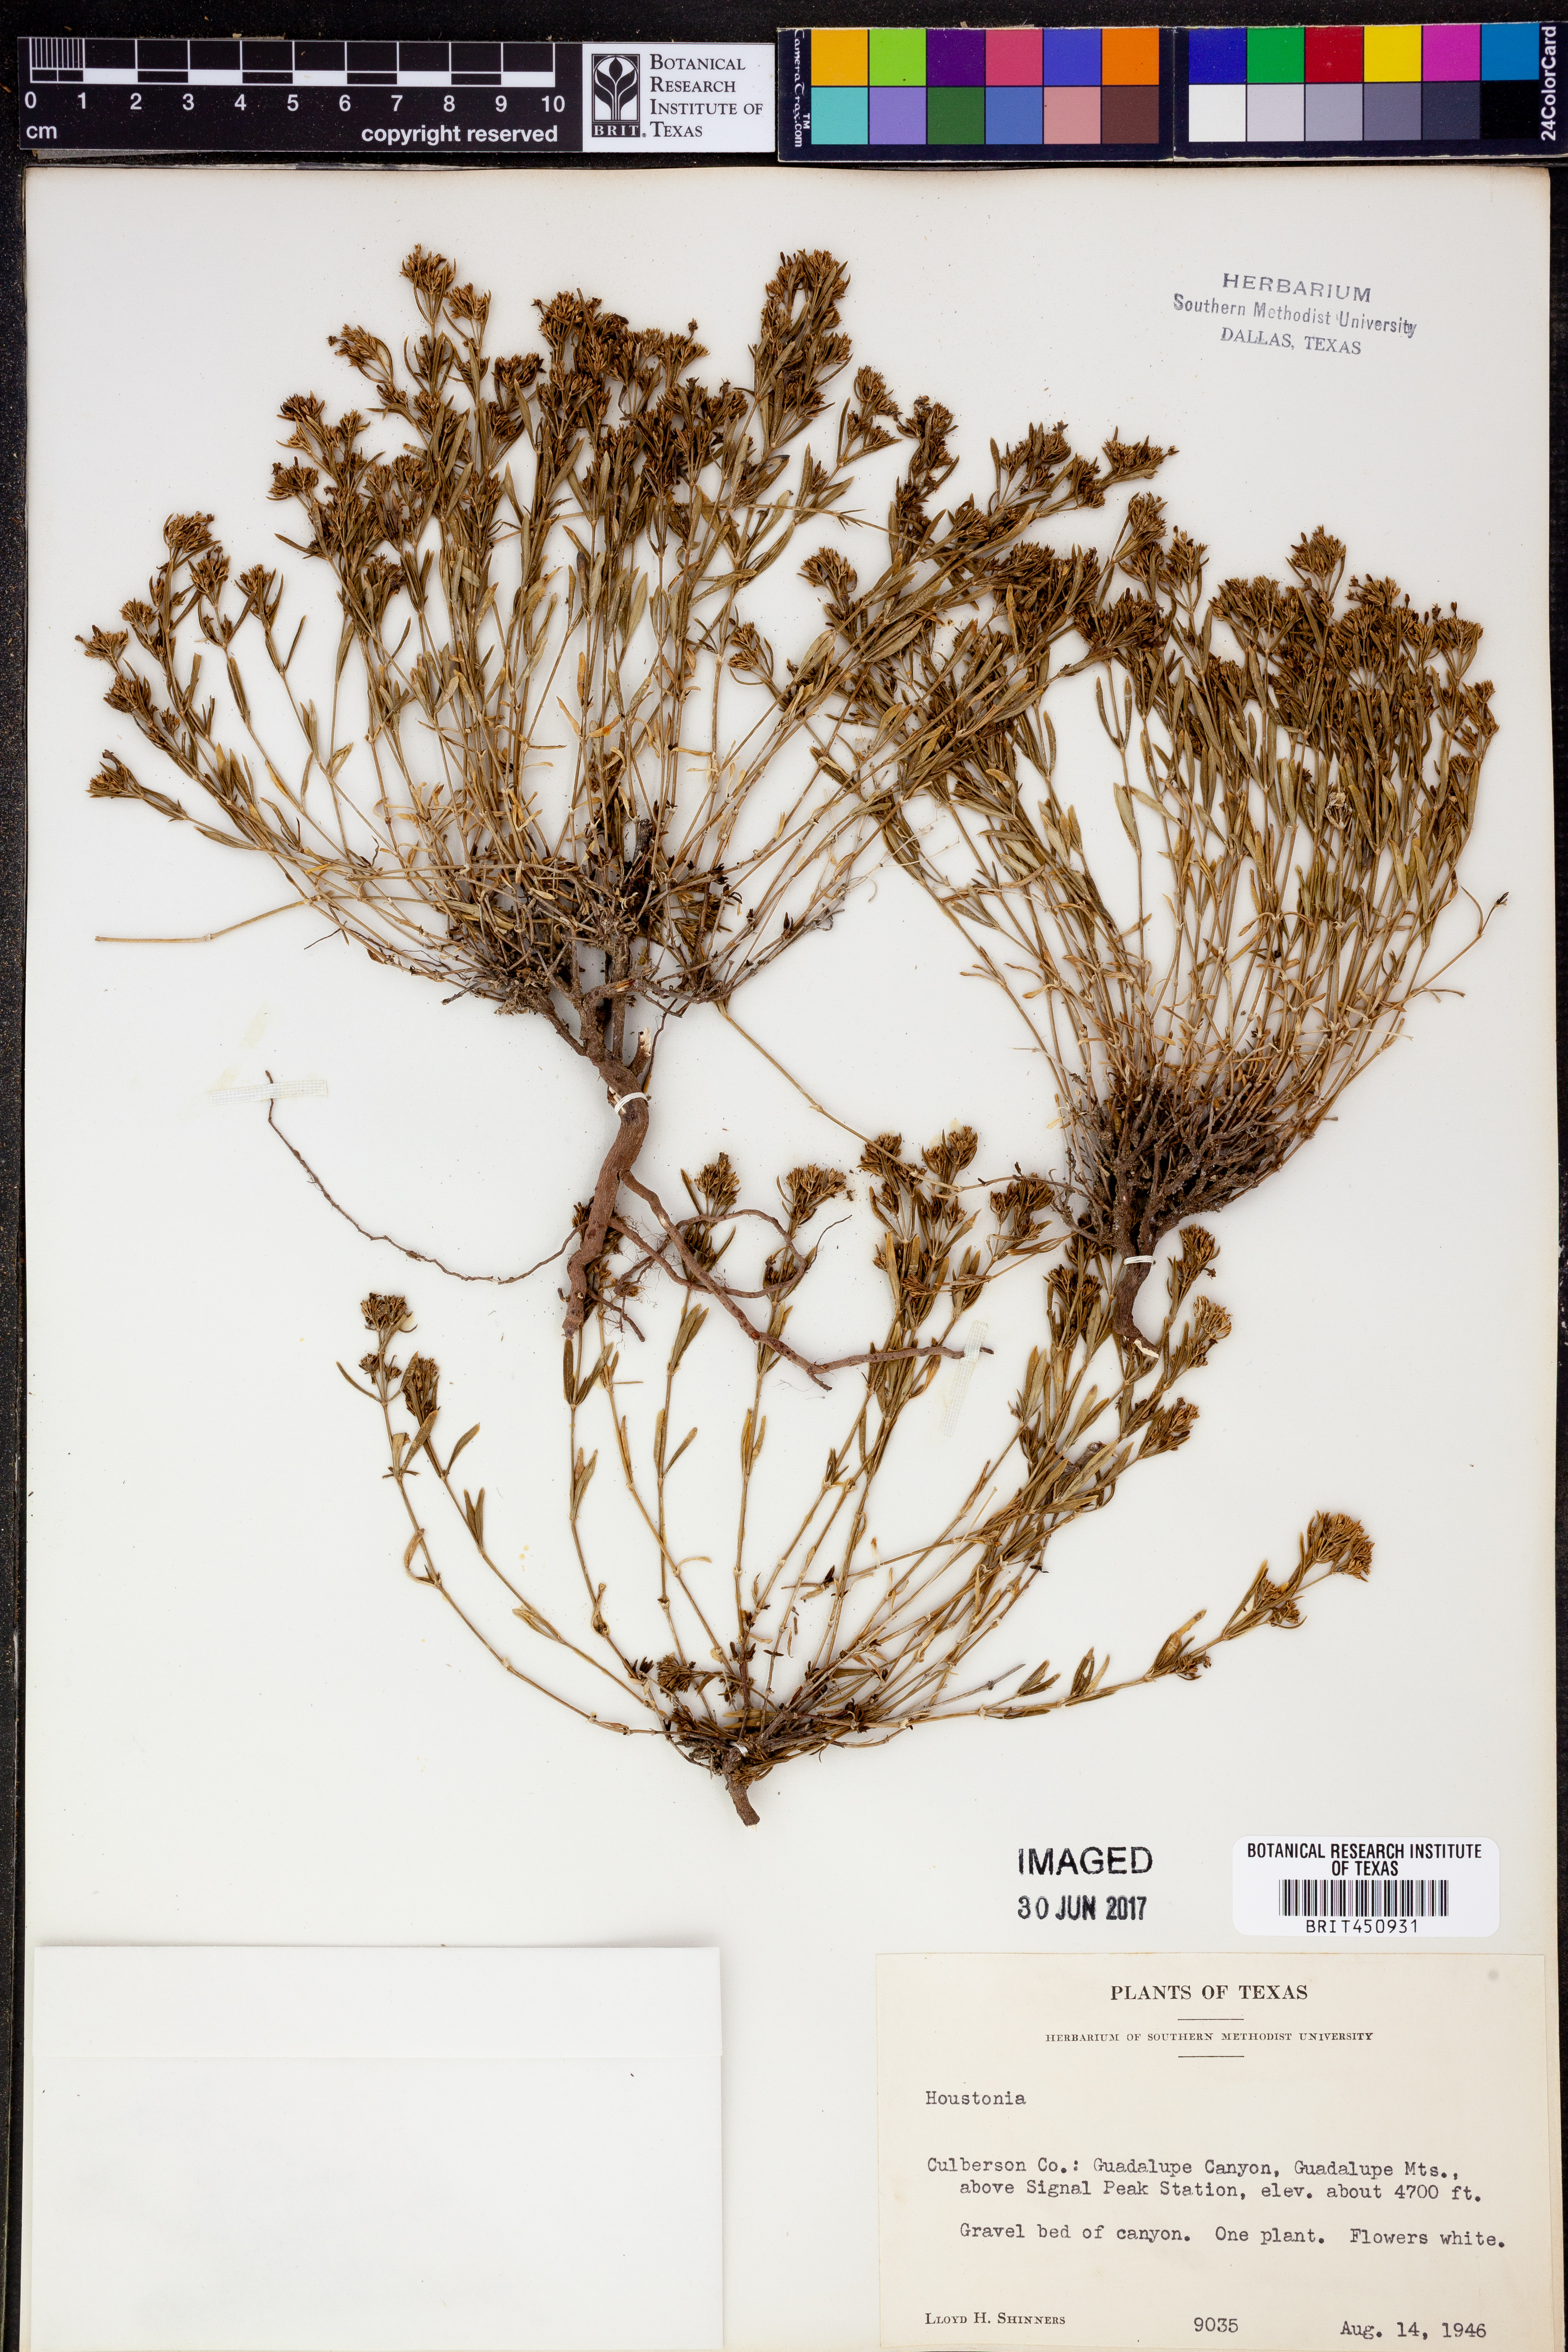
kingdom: Plantae
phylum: Tracheophyta
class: Magnoliopsida
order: Gentianales
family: Rubiaceae
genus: Houstonia
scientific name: Houstonia
